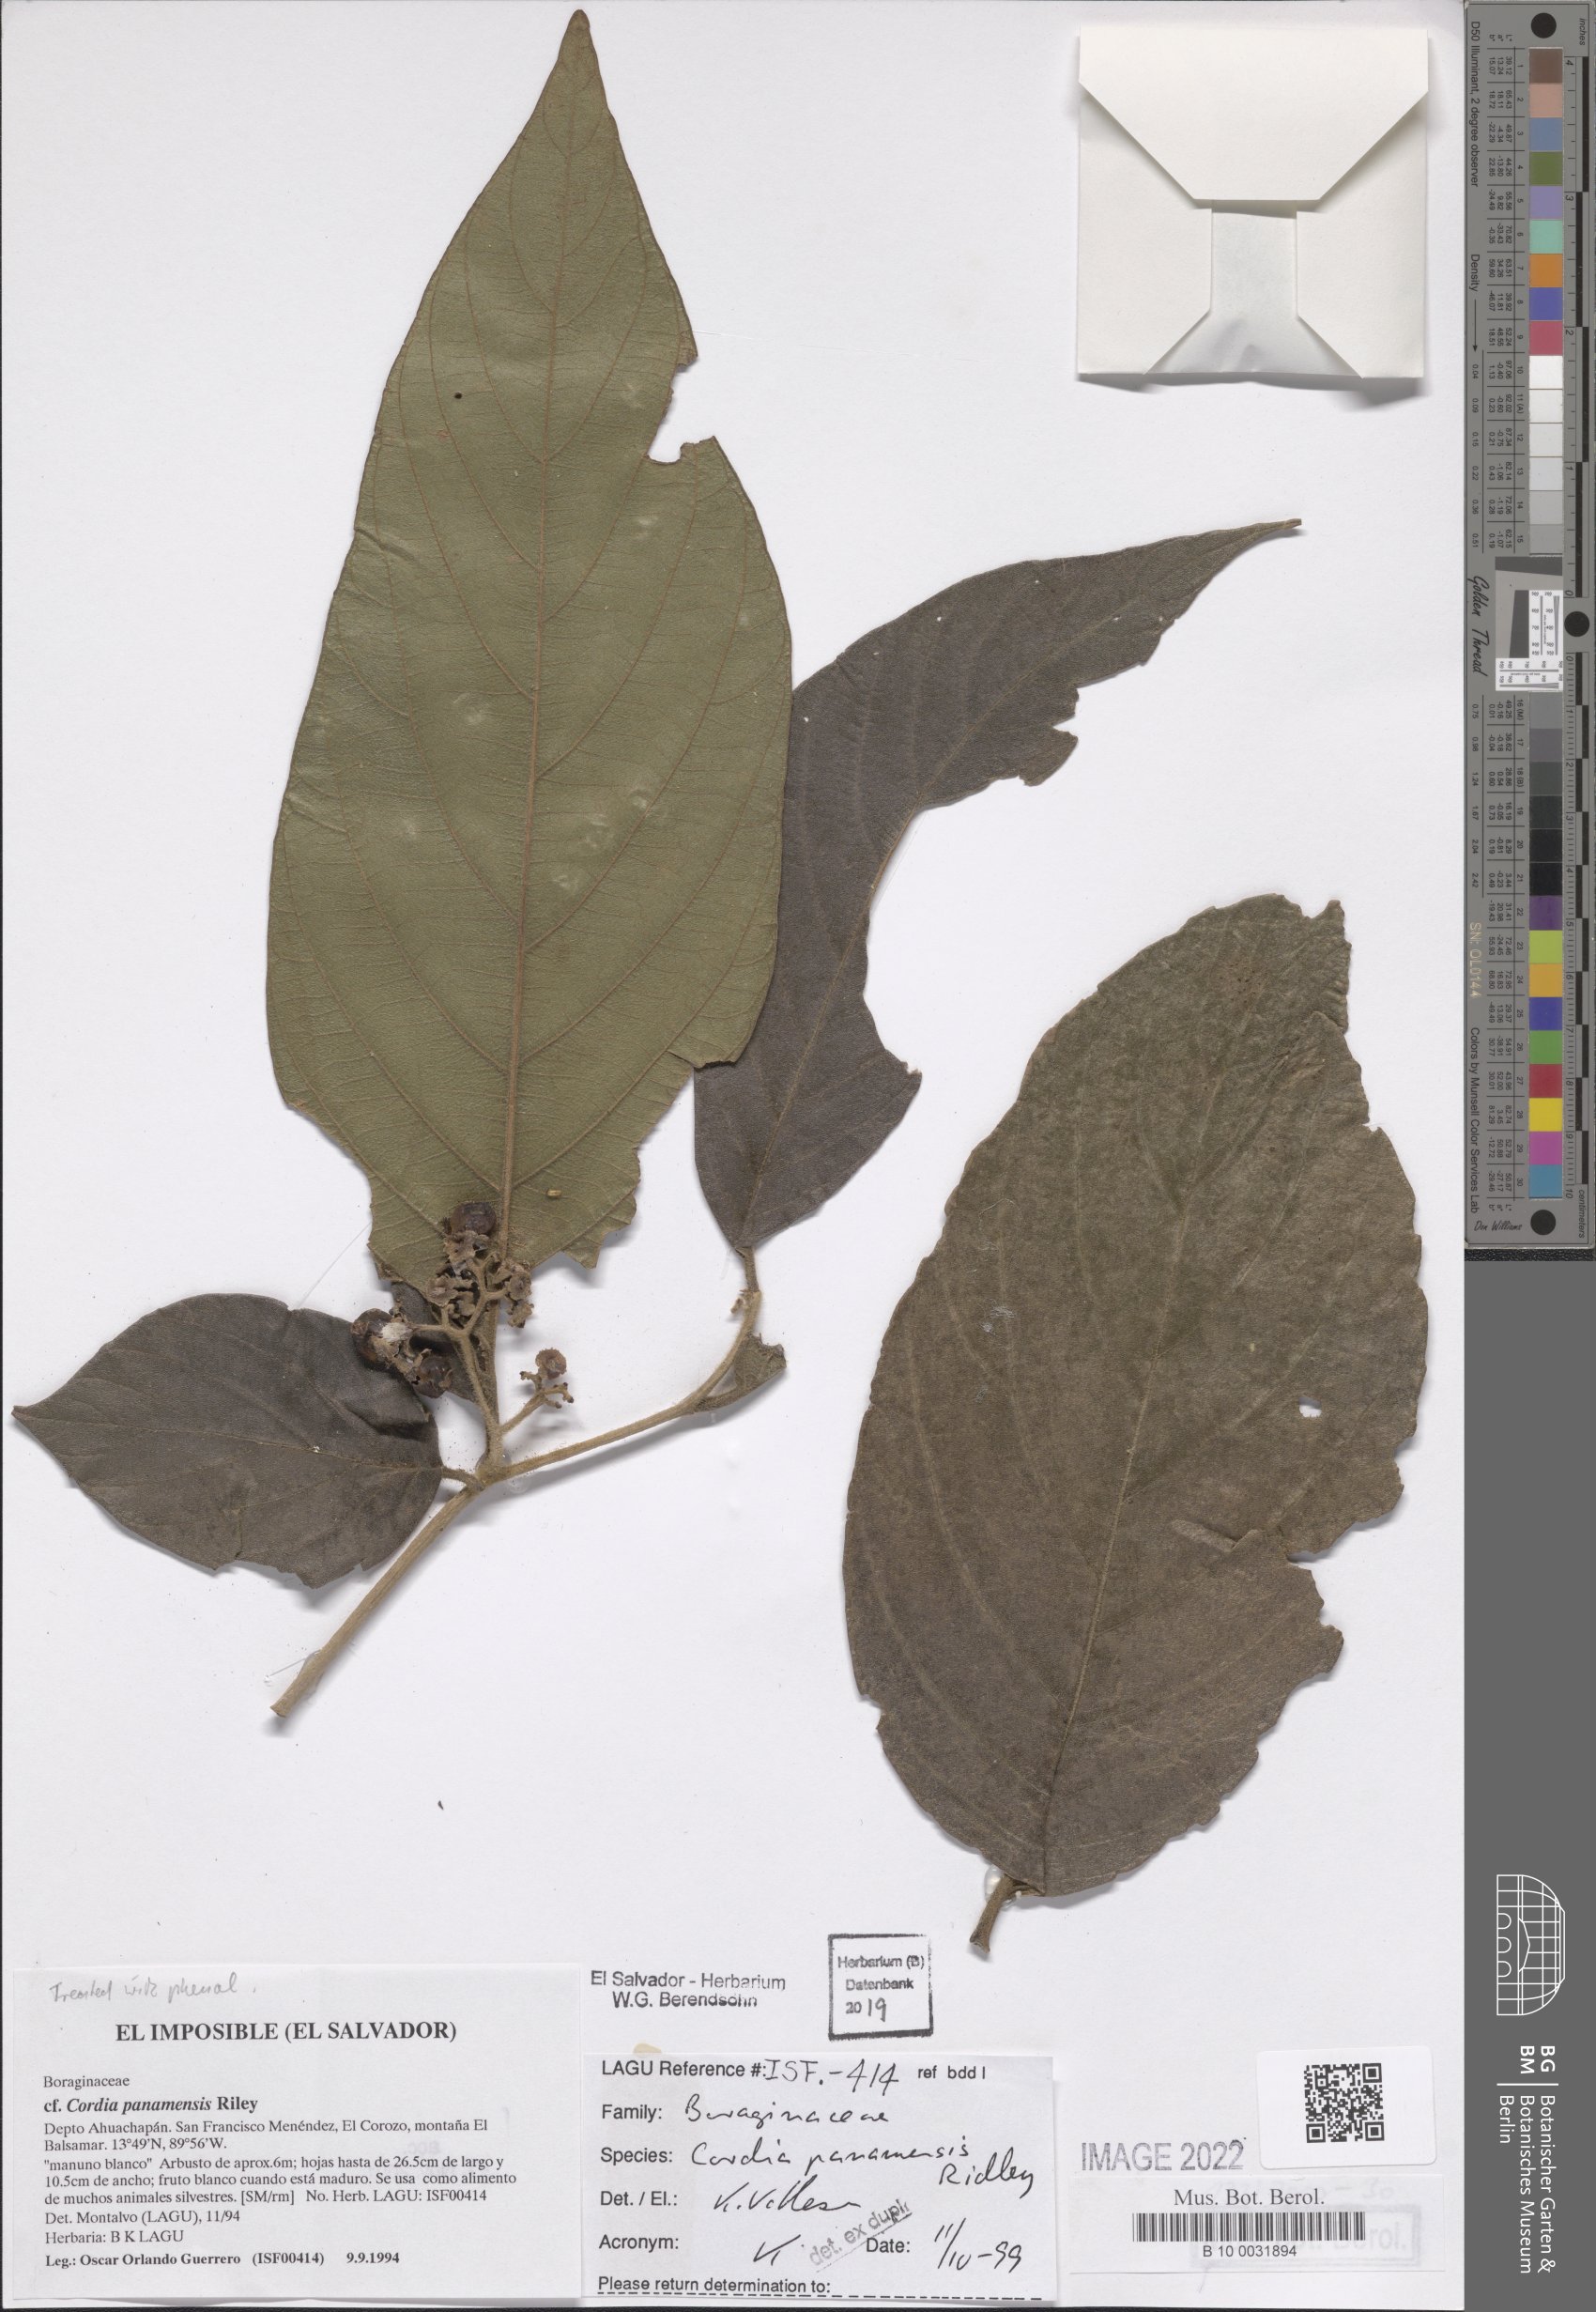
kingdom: Plantae
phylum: Tracheophyta
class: Magnoliopsida
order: Boraginales
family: Cordiaceae
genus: Cordia
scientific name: Cordia panamensis
